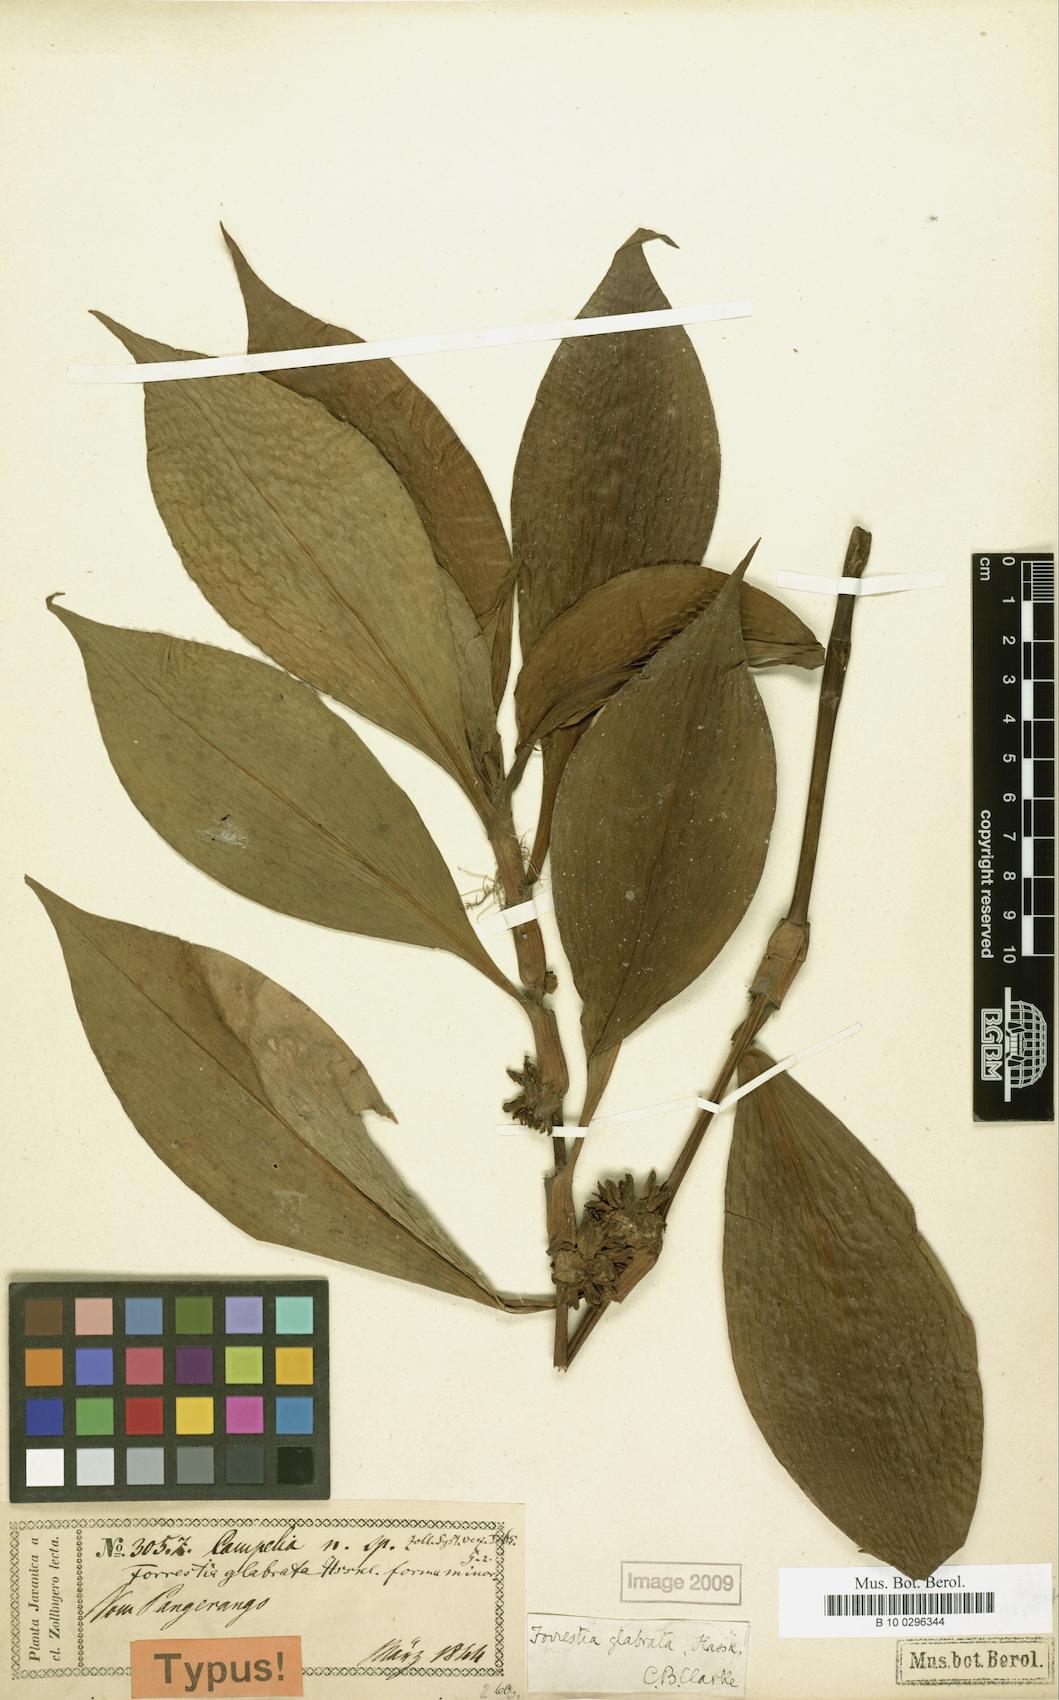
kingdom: Plantae
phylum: Tracheophyta
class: Liliopsida
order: Commelinales
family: Commelinaceae
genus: Amischotolype
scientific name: Amischotolype glabrata
